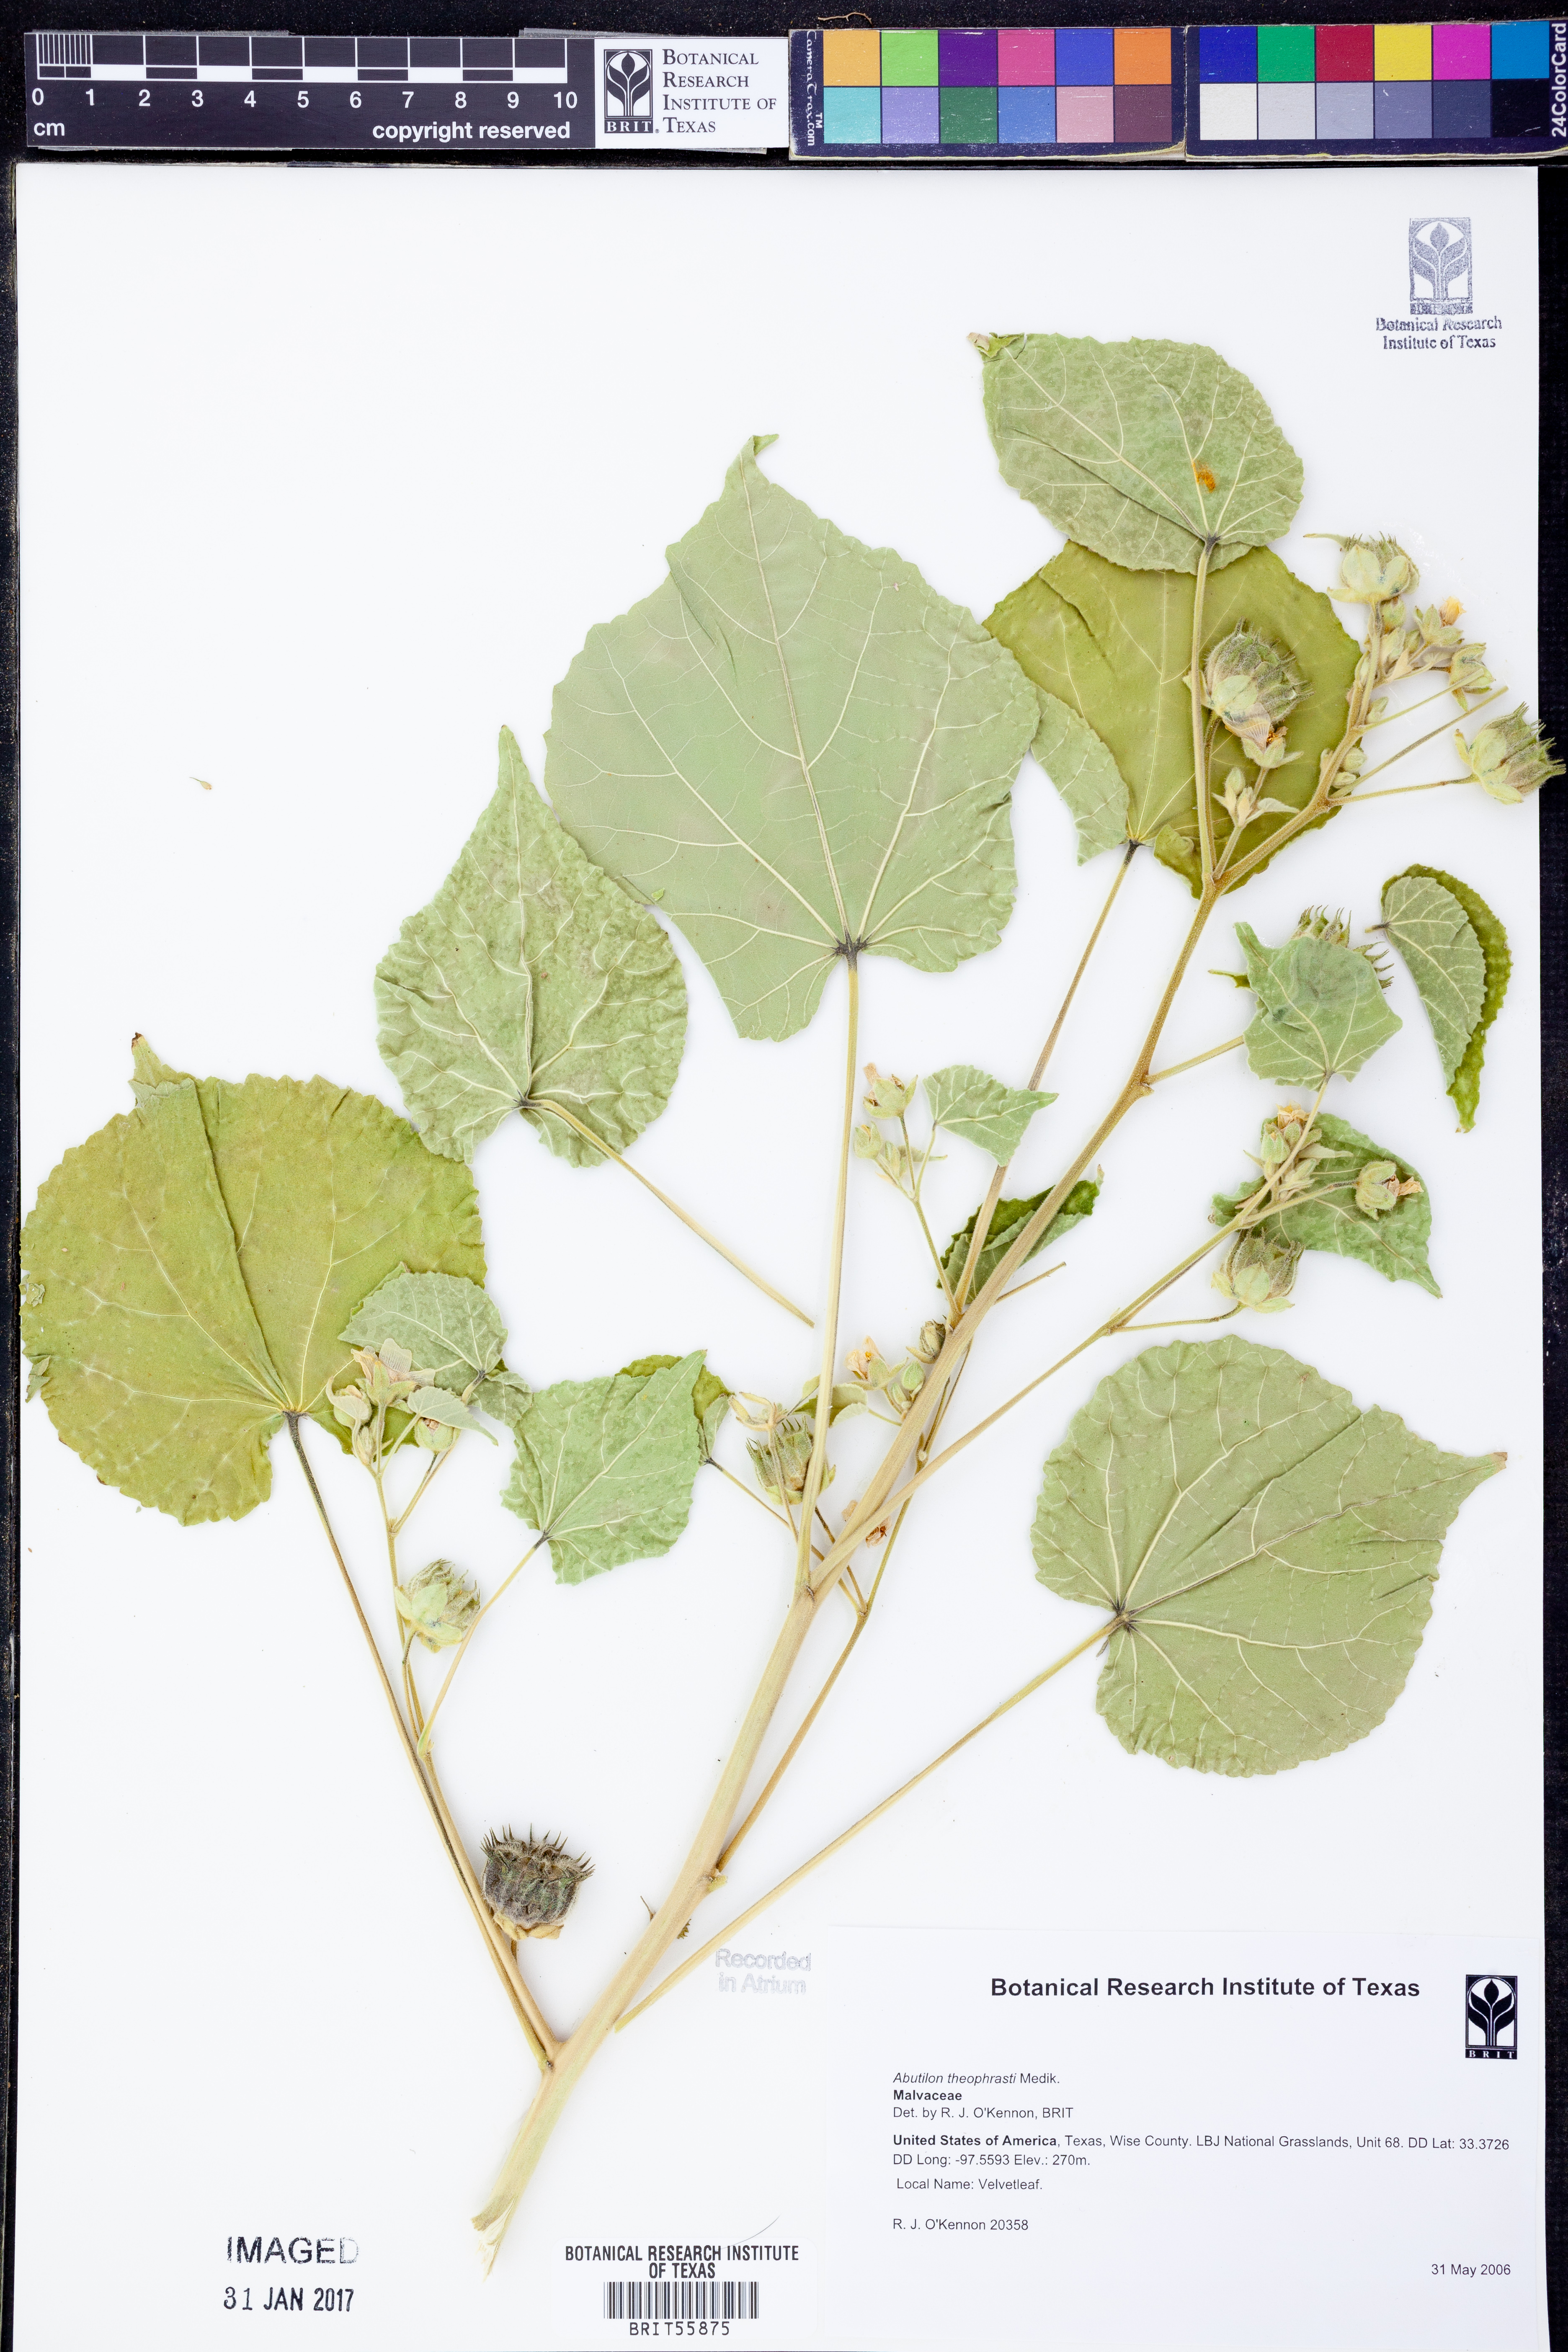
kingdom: Plantae
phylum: Tracheophyta
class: Magnoliopsida
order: Malvales
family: Malvaceae
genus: Abutilon
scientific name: Abutilon theophrasti
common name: Velvetleaf
